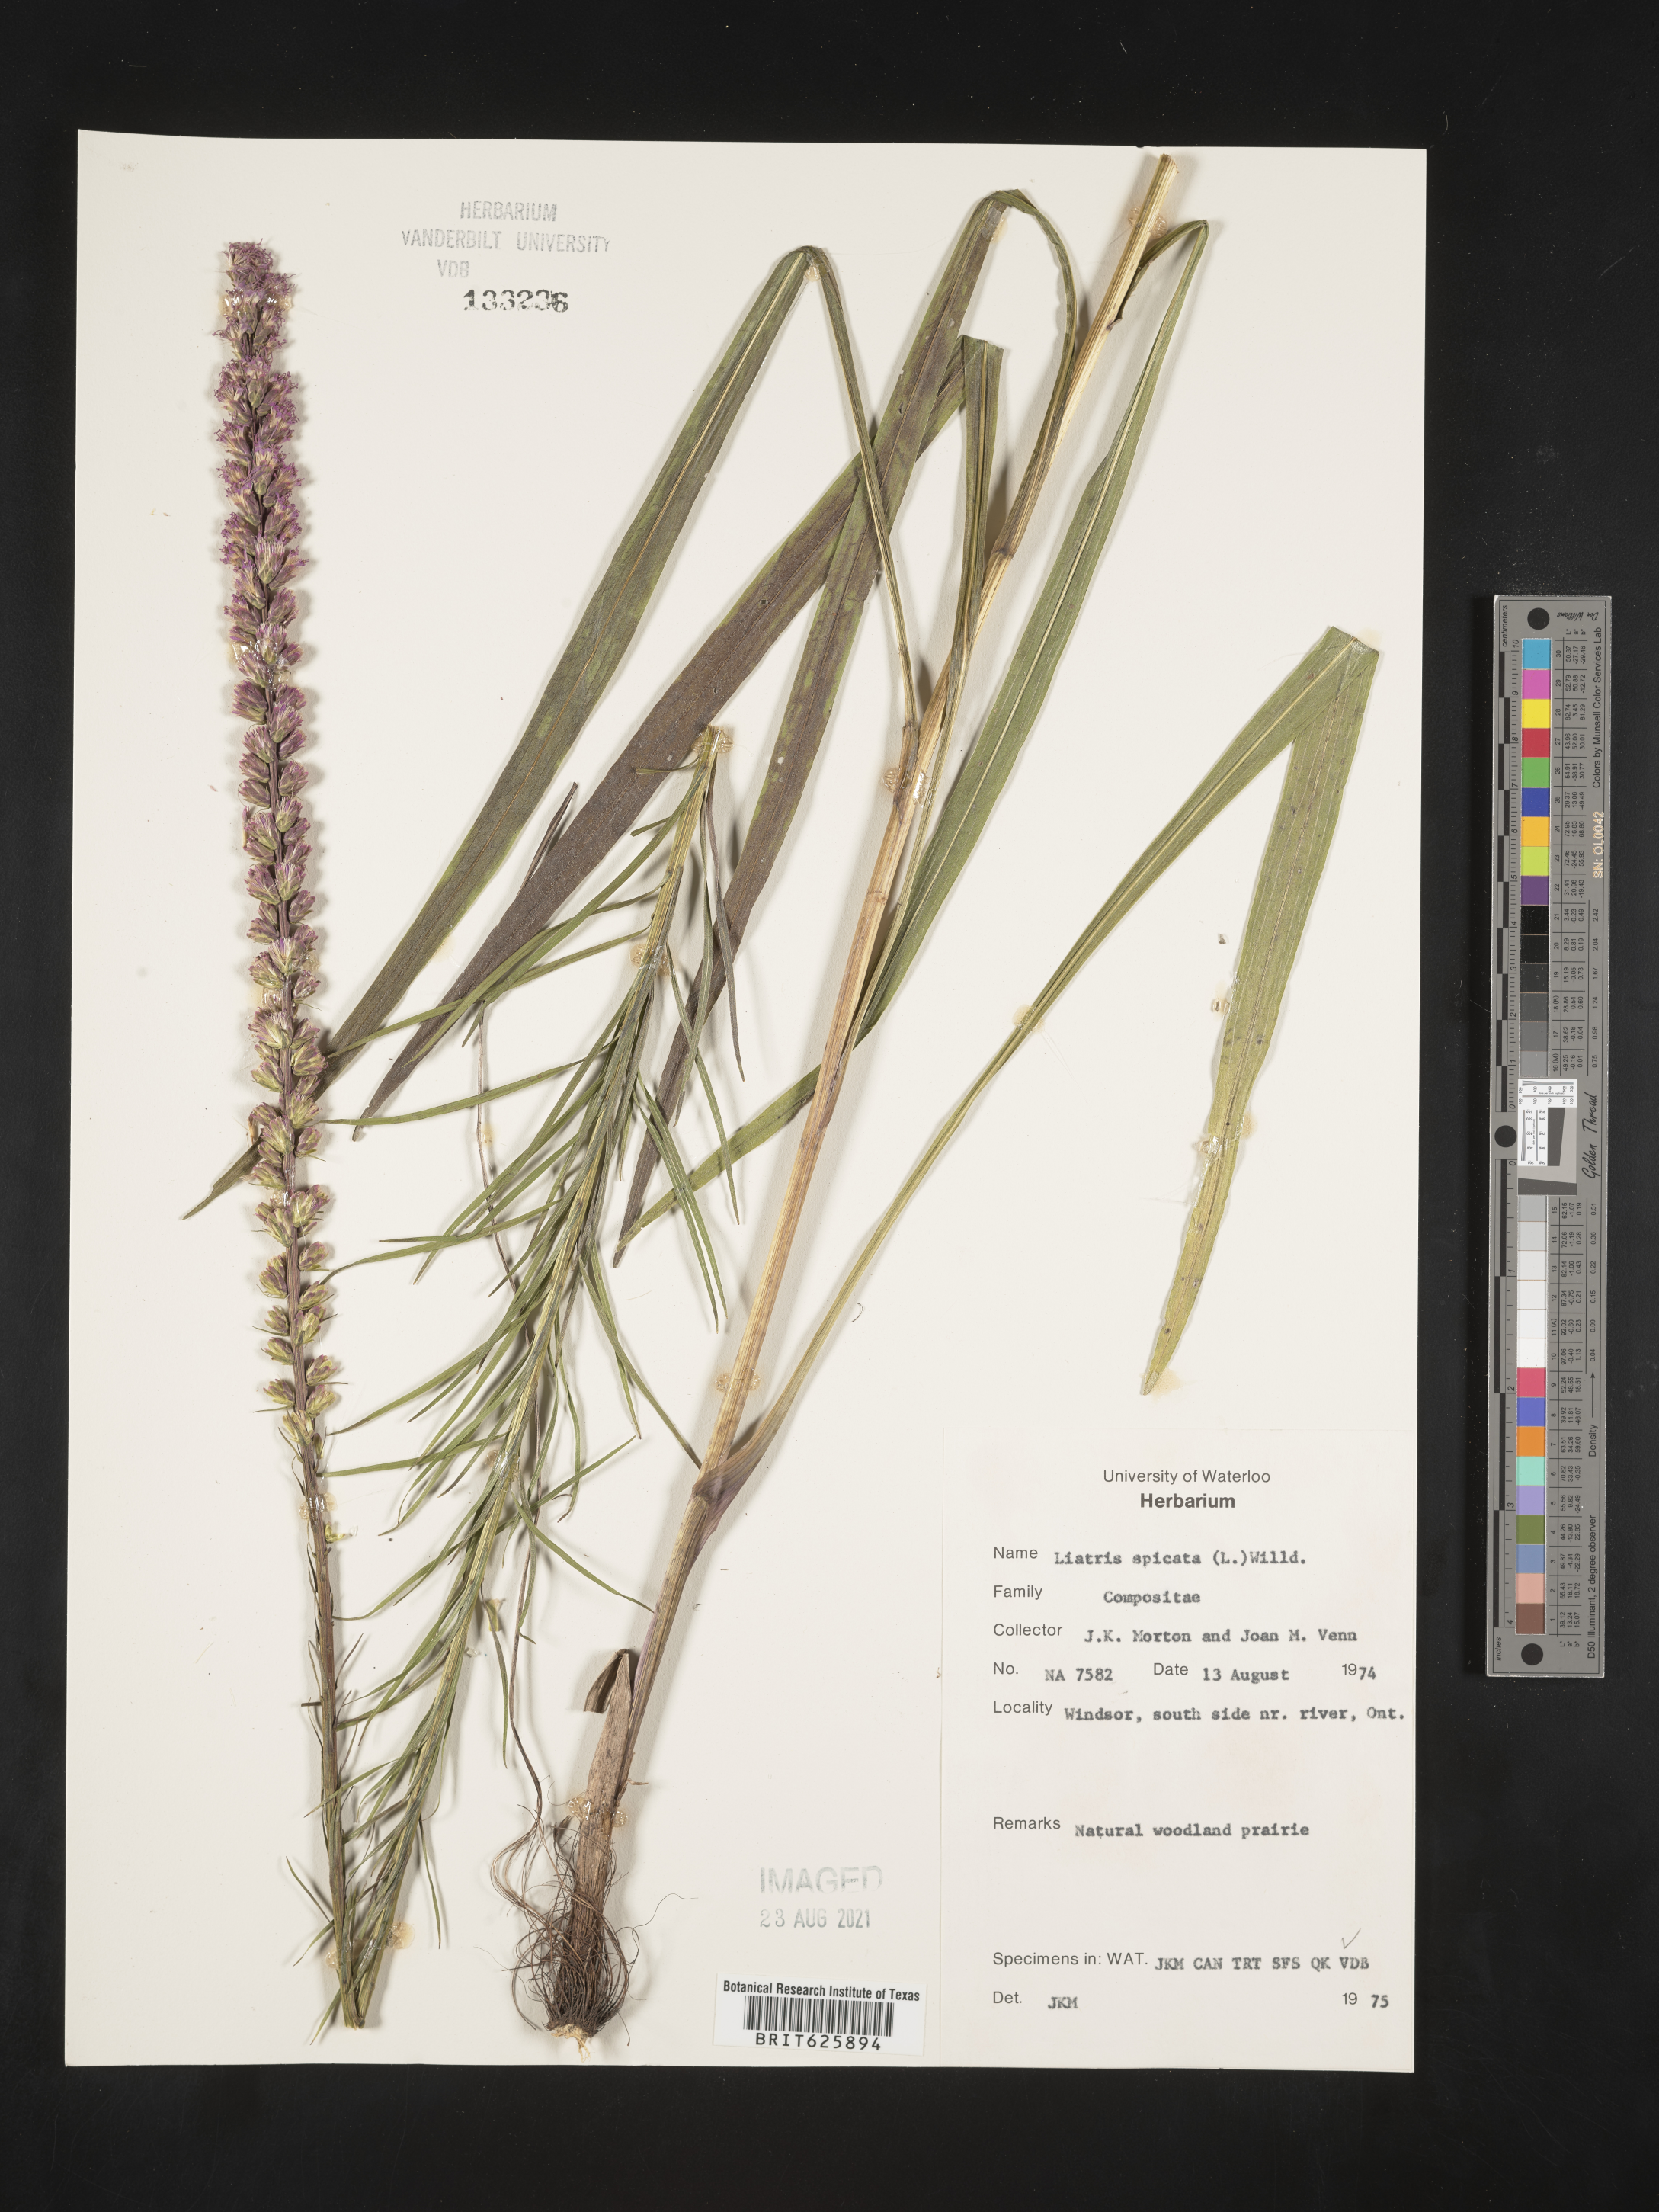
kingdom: Plantae
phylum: Tracheophyta
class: Magnoliopsida
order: Asterales
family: Asteraceae
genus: Liatris
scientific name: Liatris spicata
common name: Florist gayfeather
